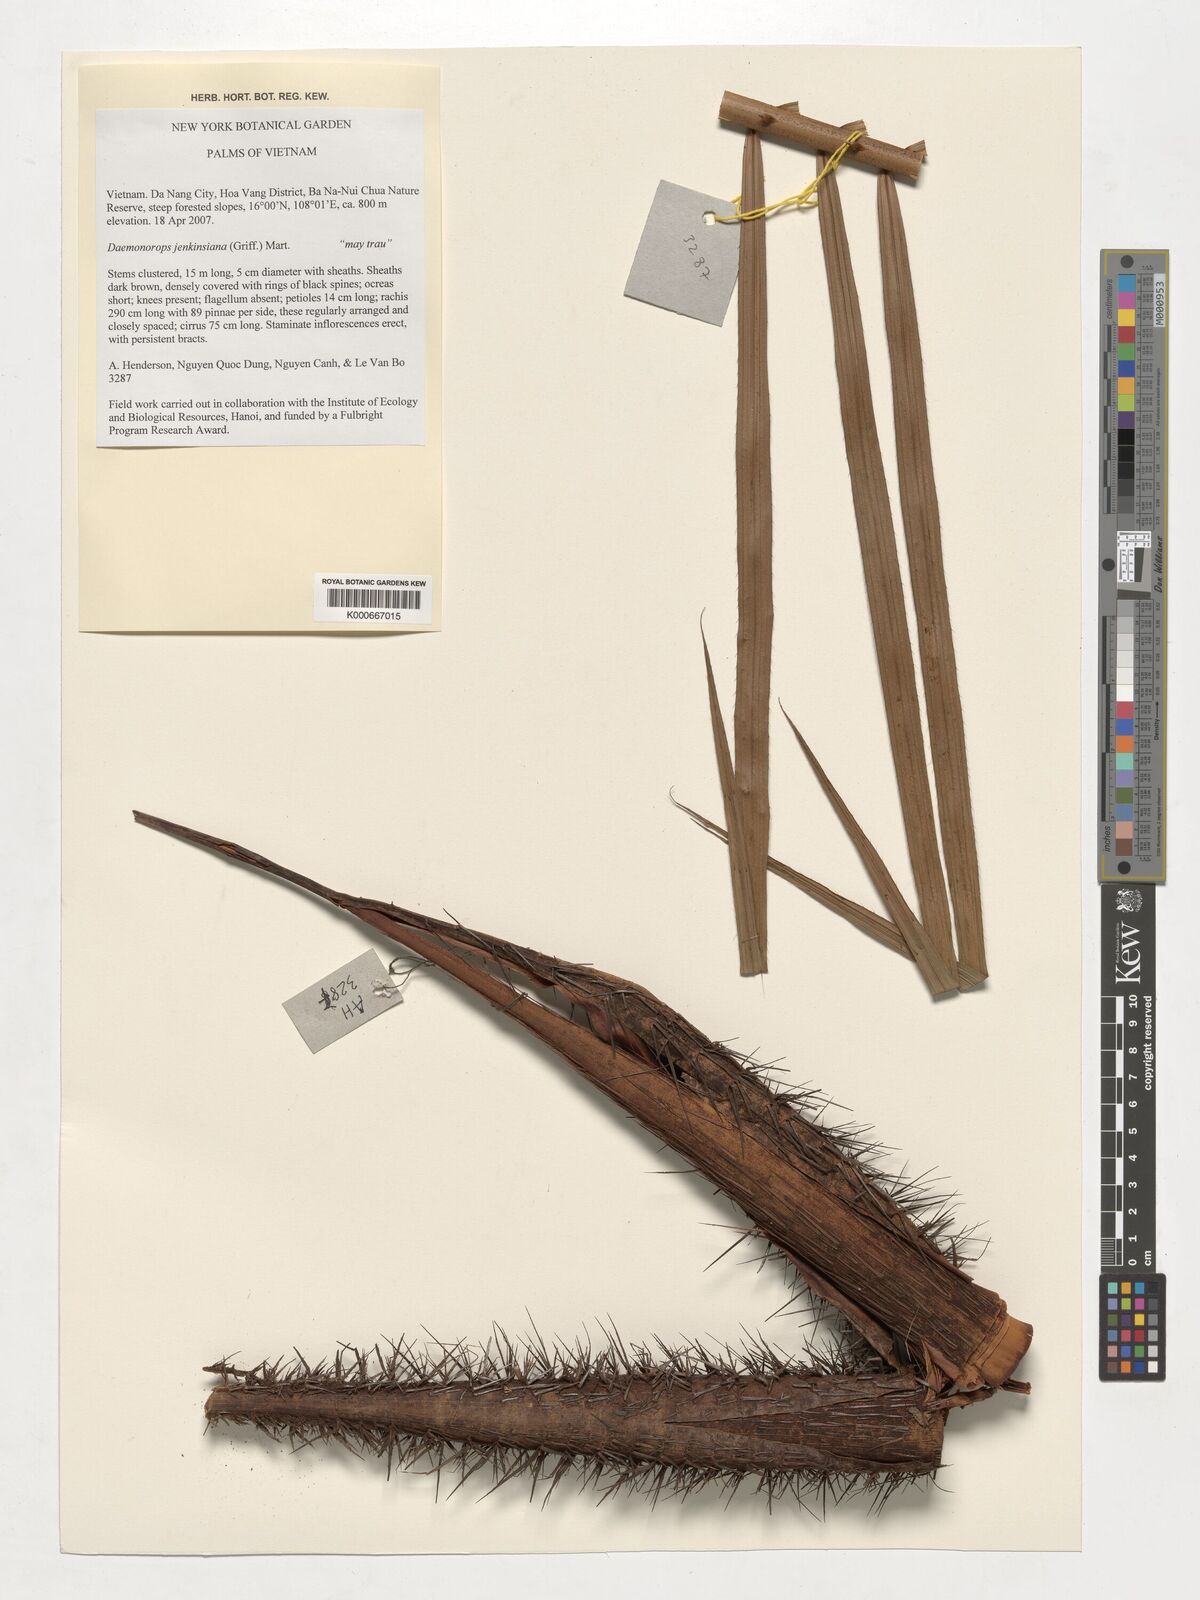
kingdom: Plantae
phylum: Tracheophyta
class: Liliopsida
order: Arecales
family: Arecaceae
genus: Calamus
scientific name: Calamus melanochaetes
